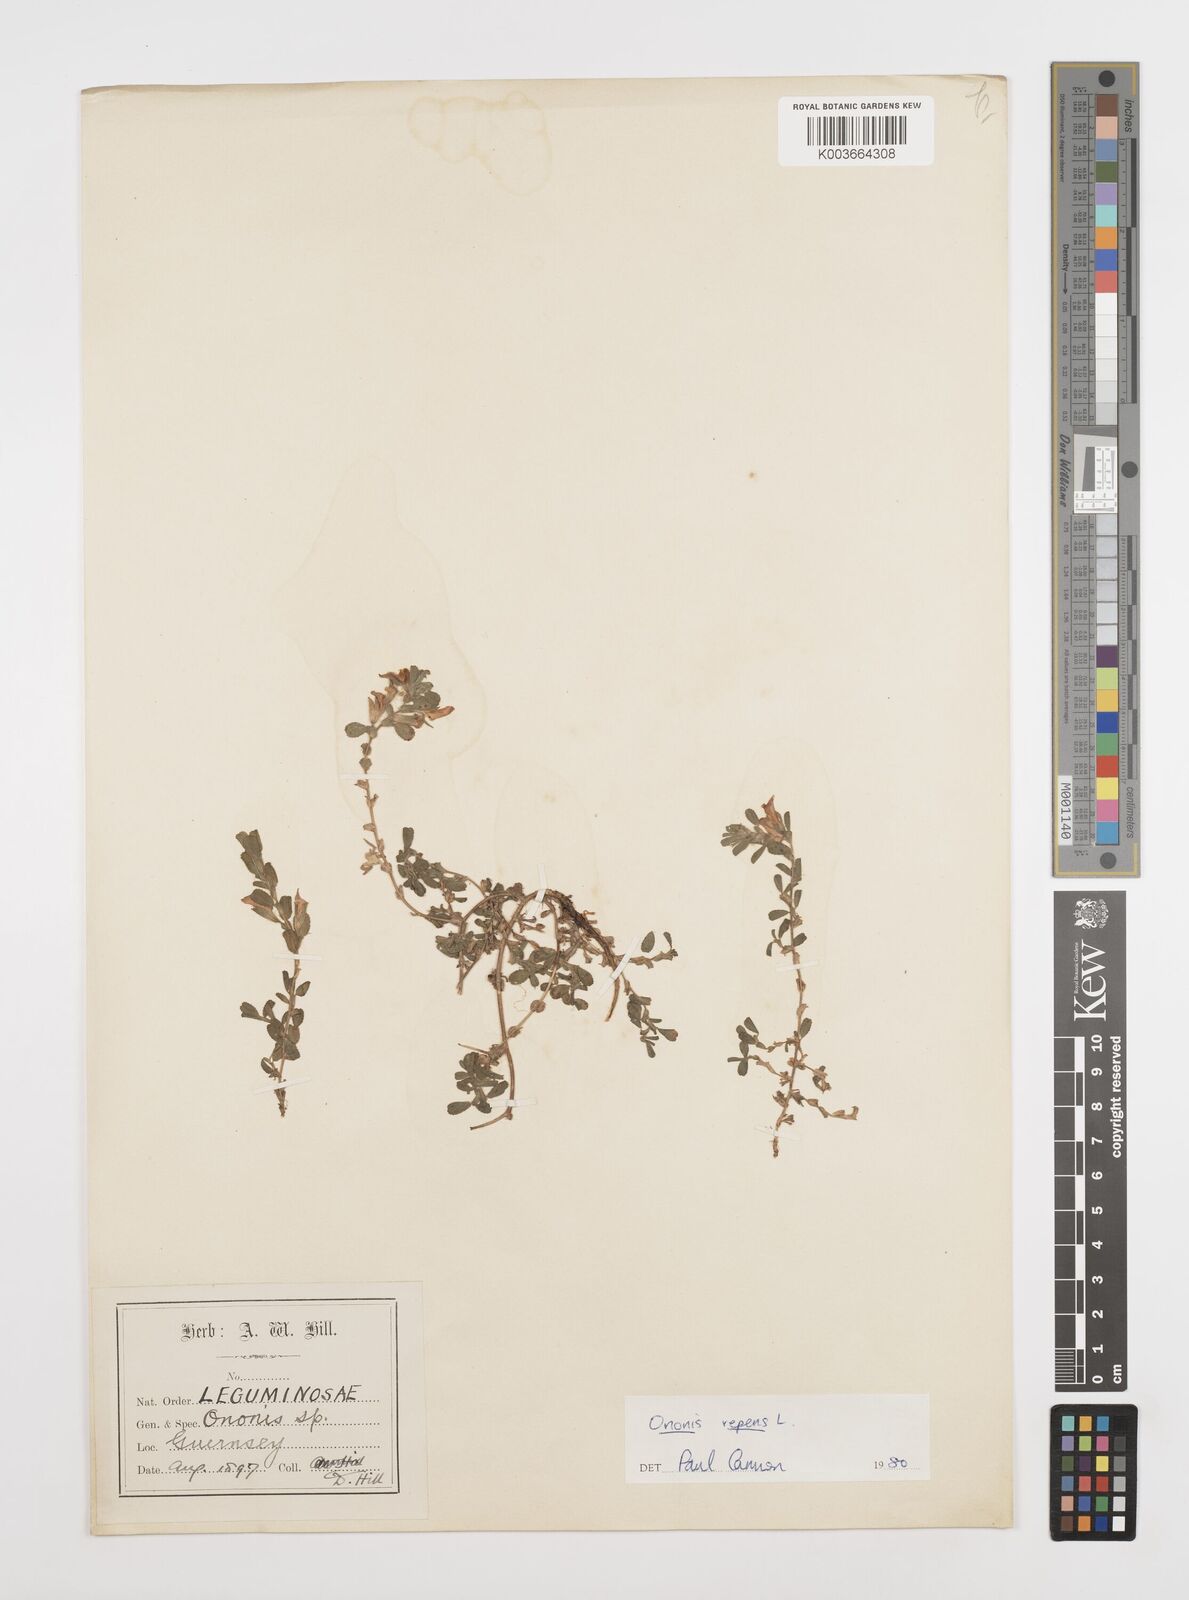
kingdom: Plantae
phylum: Tracheophyta
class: Magnoliopsida
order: Fabales
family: Fabaceae
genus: Ononis
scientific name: Ononis spinosa
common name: Spiny restharrow
